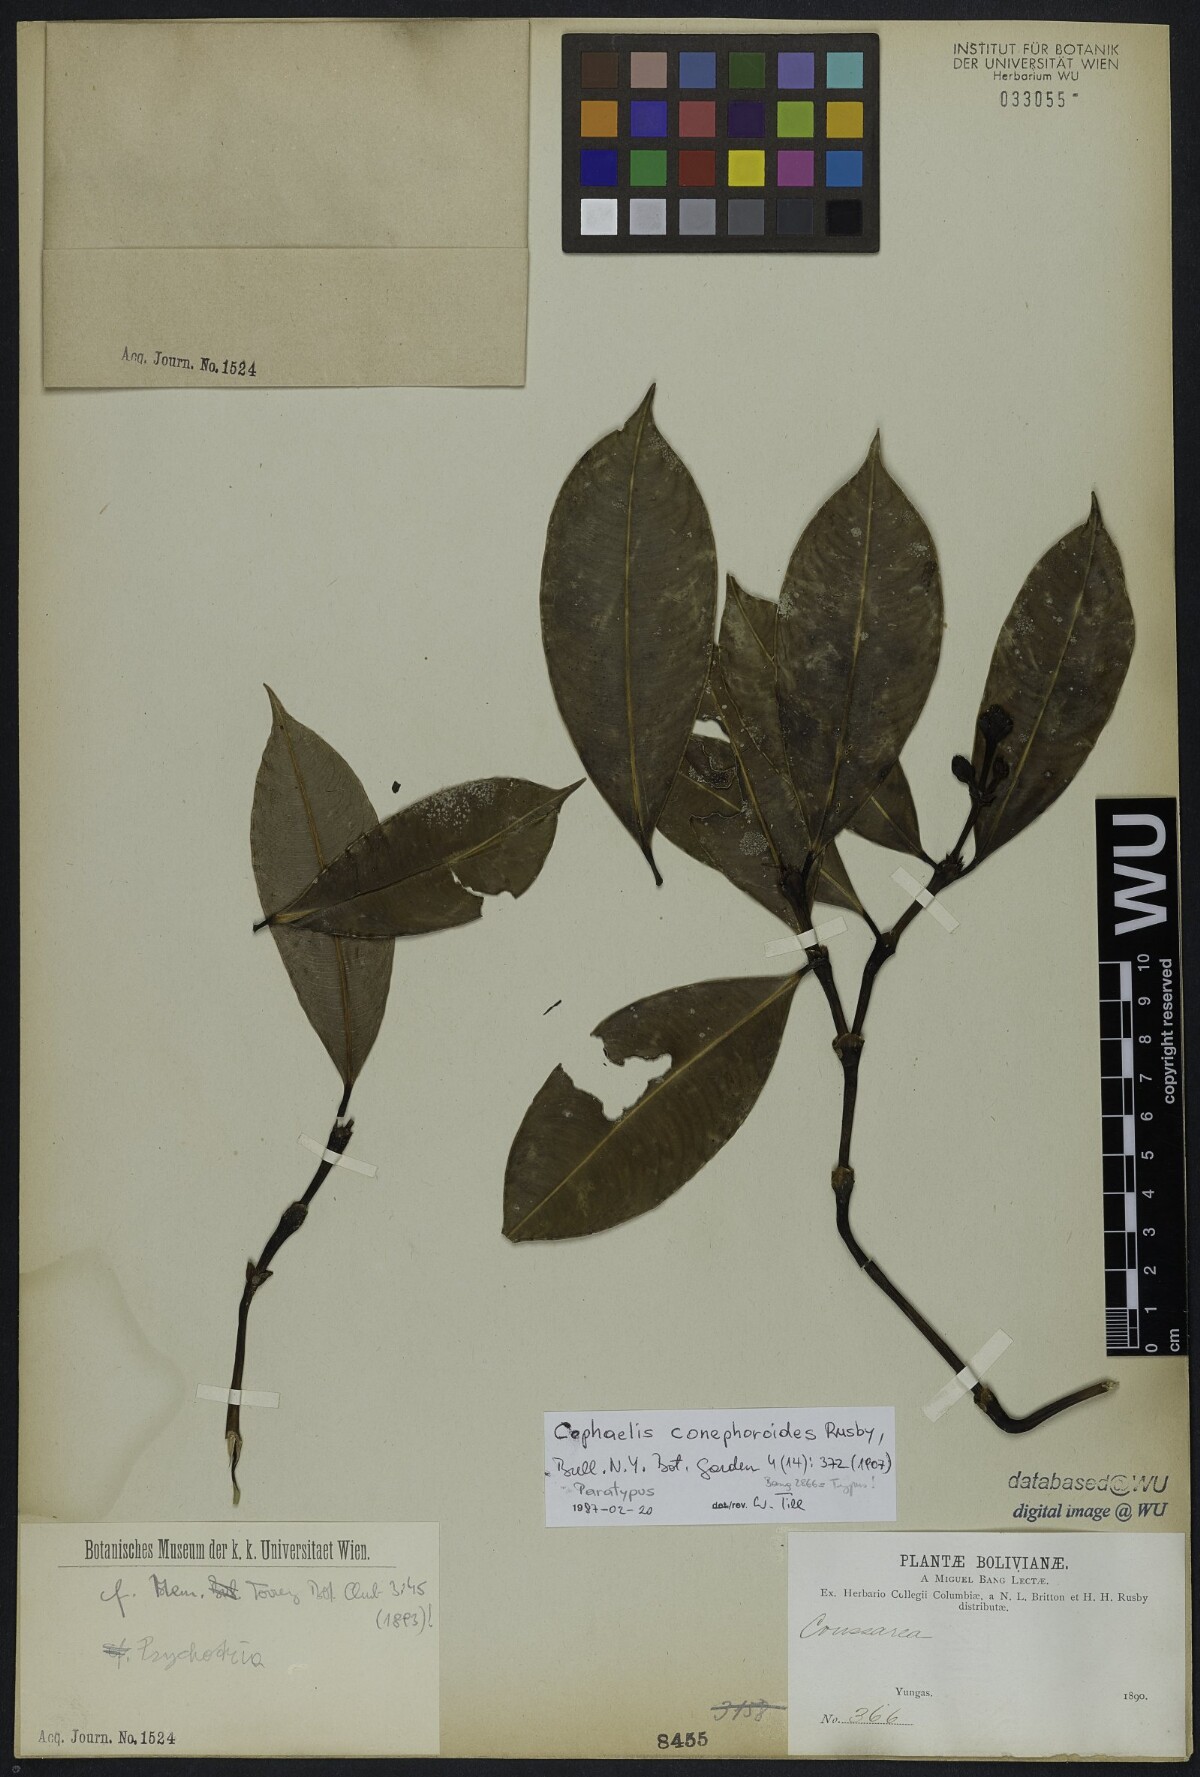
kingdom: Plantae
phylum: Tracheophyta
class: Magnoliopsida
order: Gentianales
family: Rubiaceae
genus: Palicourea
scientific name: Palicourea conephoroides
